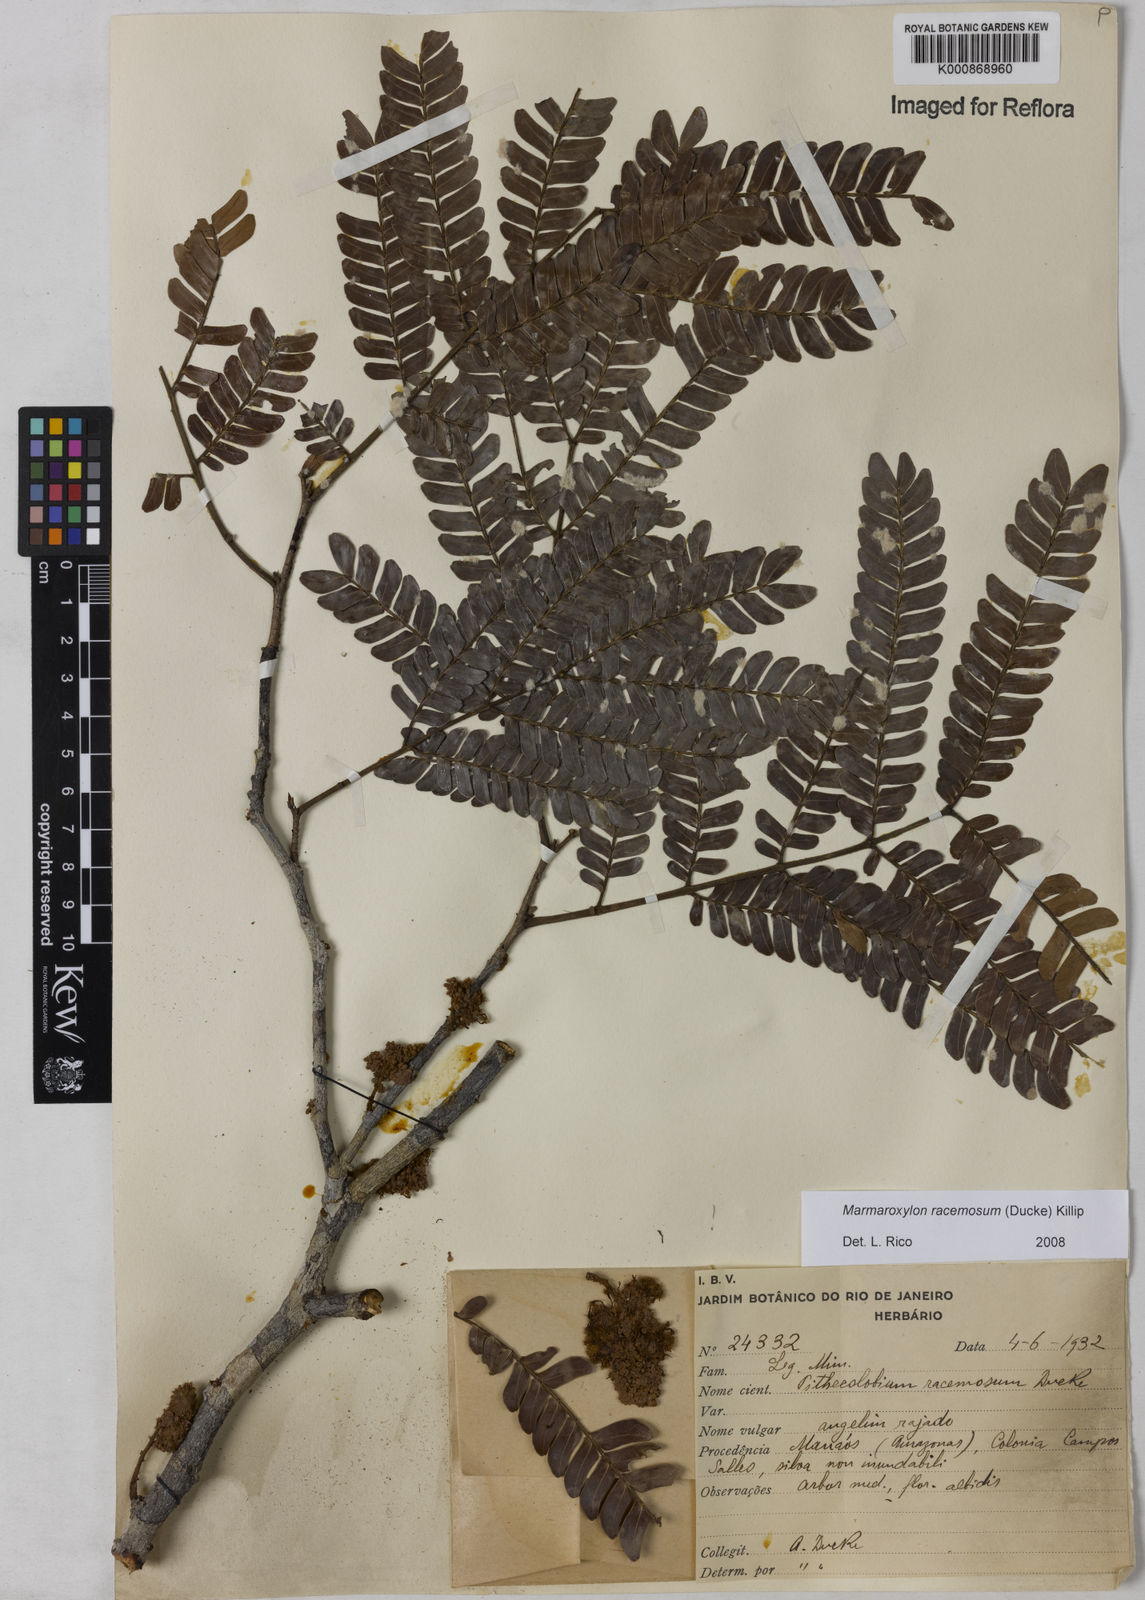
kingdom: Plantae
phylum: Tracheophyta
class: Magnoliopsida
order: Fabales
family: Fabaceae
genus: Zygia
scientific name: Zygia racemosa
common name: Marblewood
